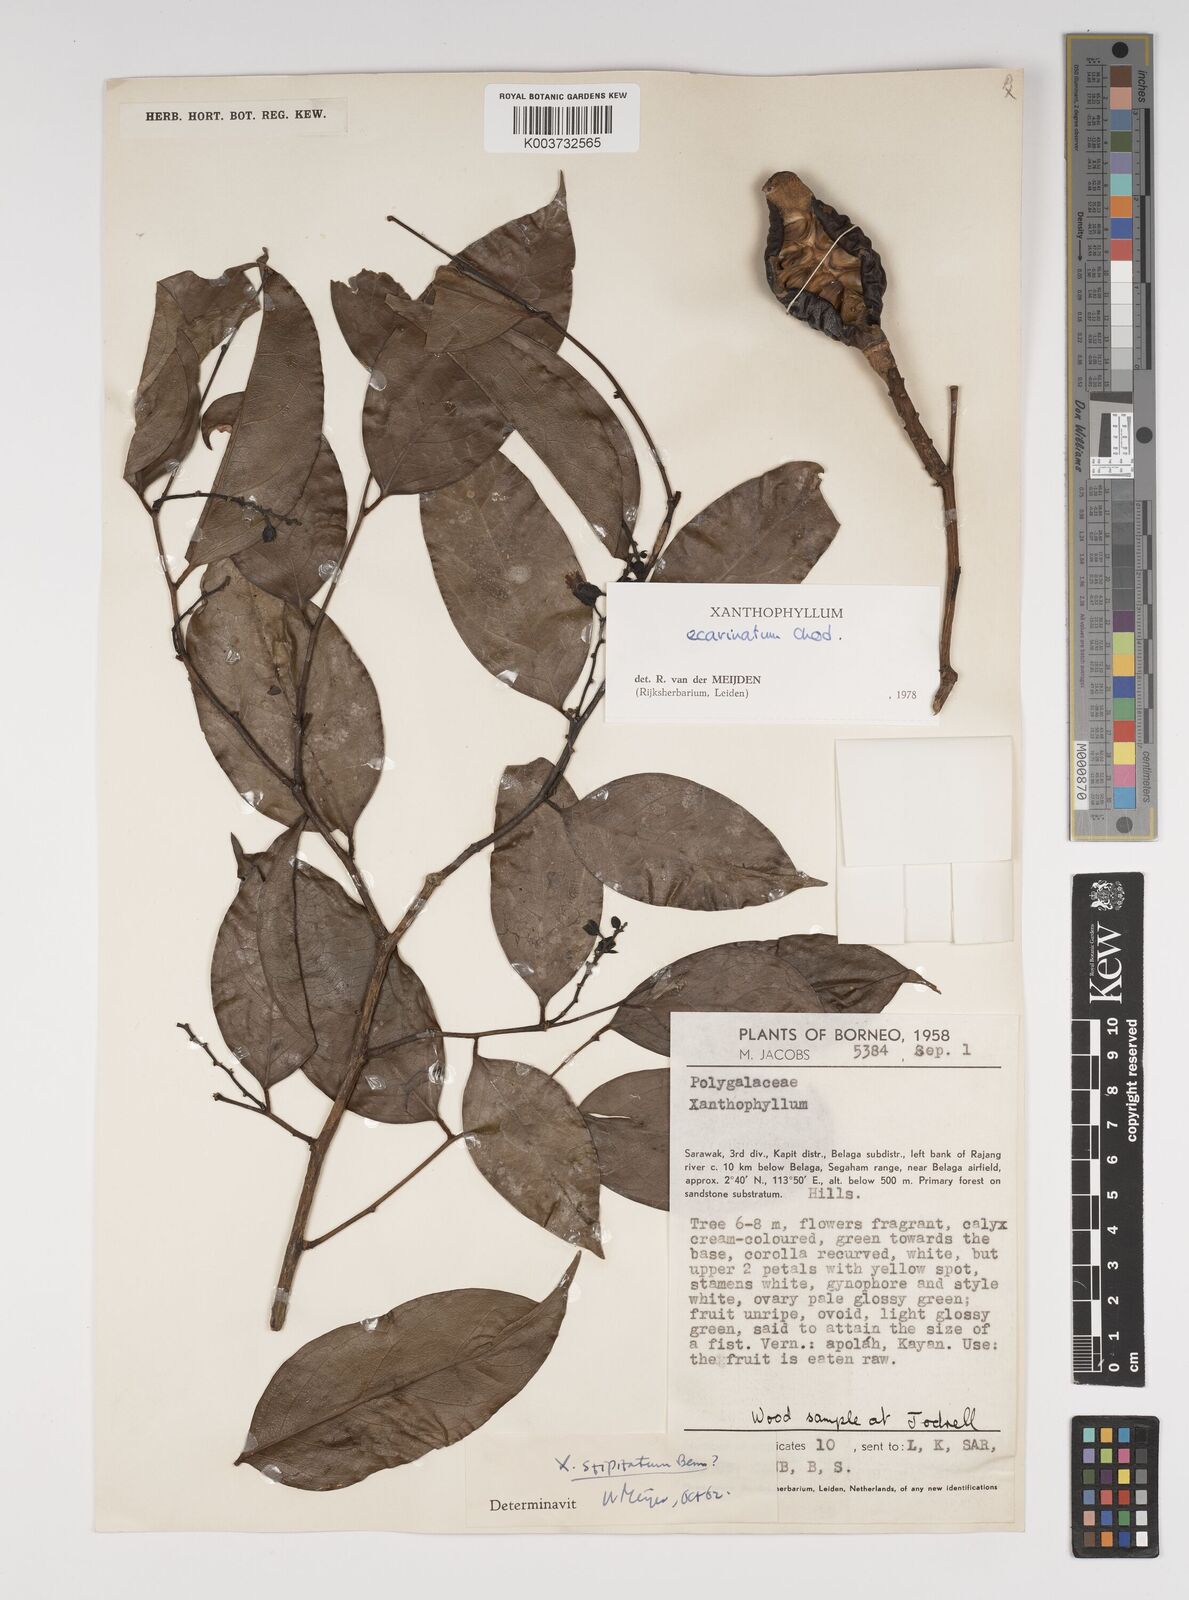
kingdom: Plantae
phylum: Tracheophyta
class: Magnoliopsida
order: Fabales
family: Polygalaceae
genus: Xanthophyllum
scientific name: Xanthophyllum ecarinatum
